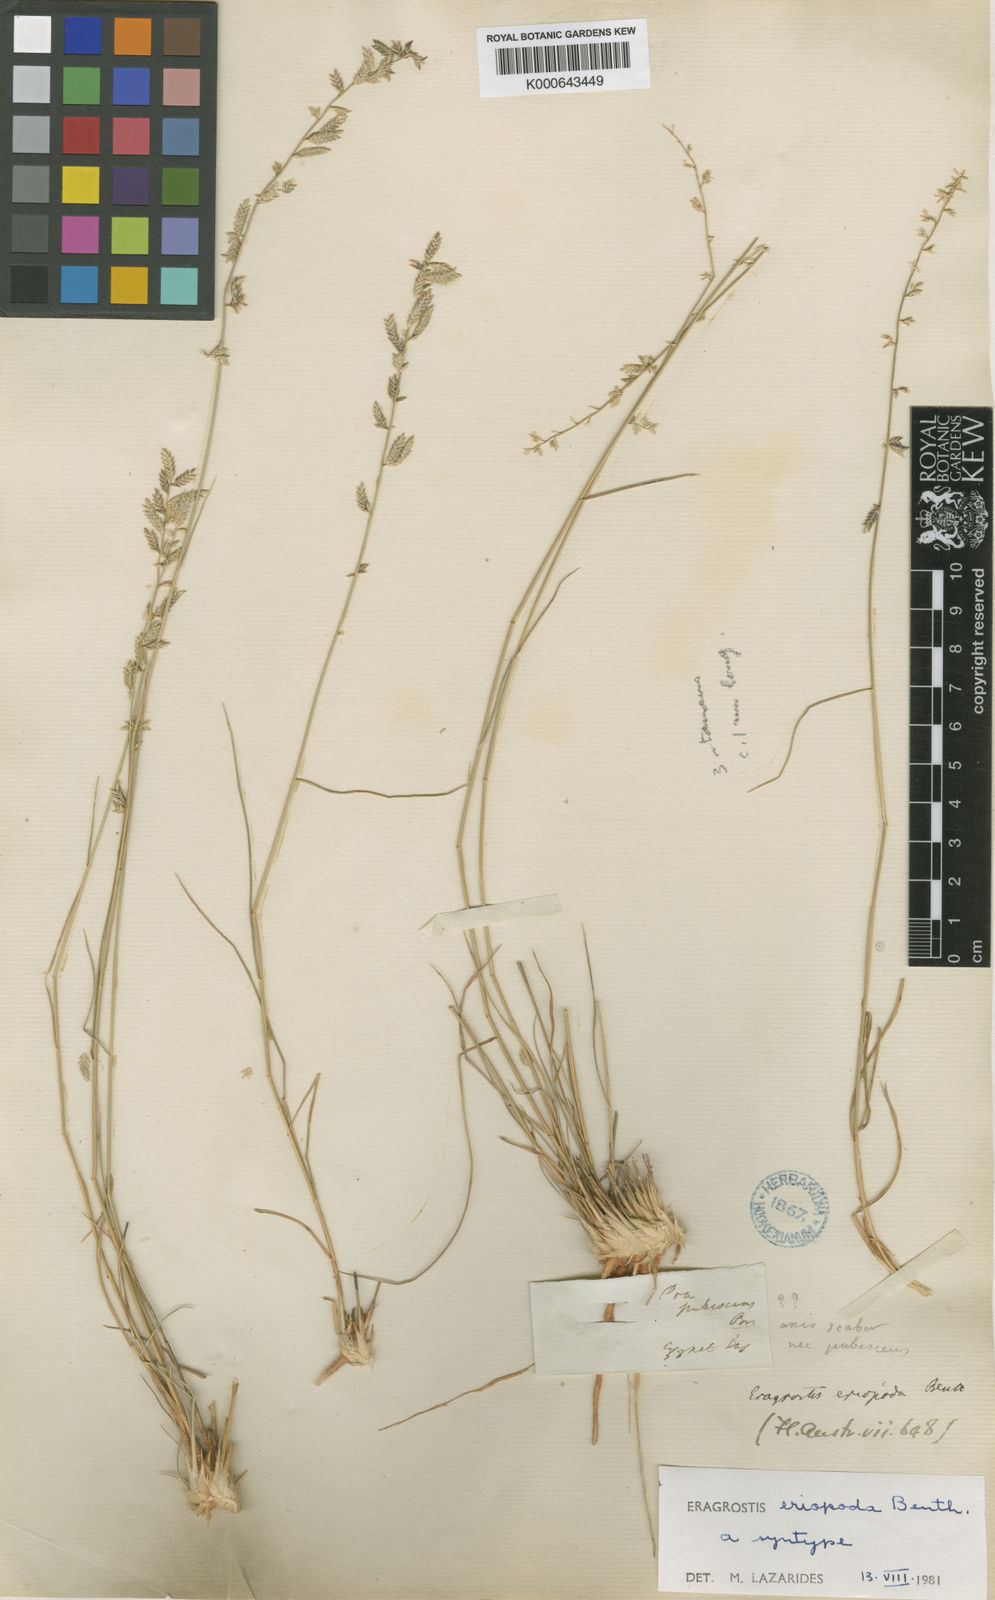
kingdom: Plantae
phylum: Tracheophyta
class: Liliopsida
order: Poales
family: Poaceae
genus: Eragrostis
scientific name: Eragrostis eriopoda
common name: Plain neverfail
